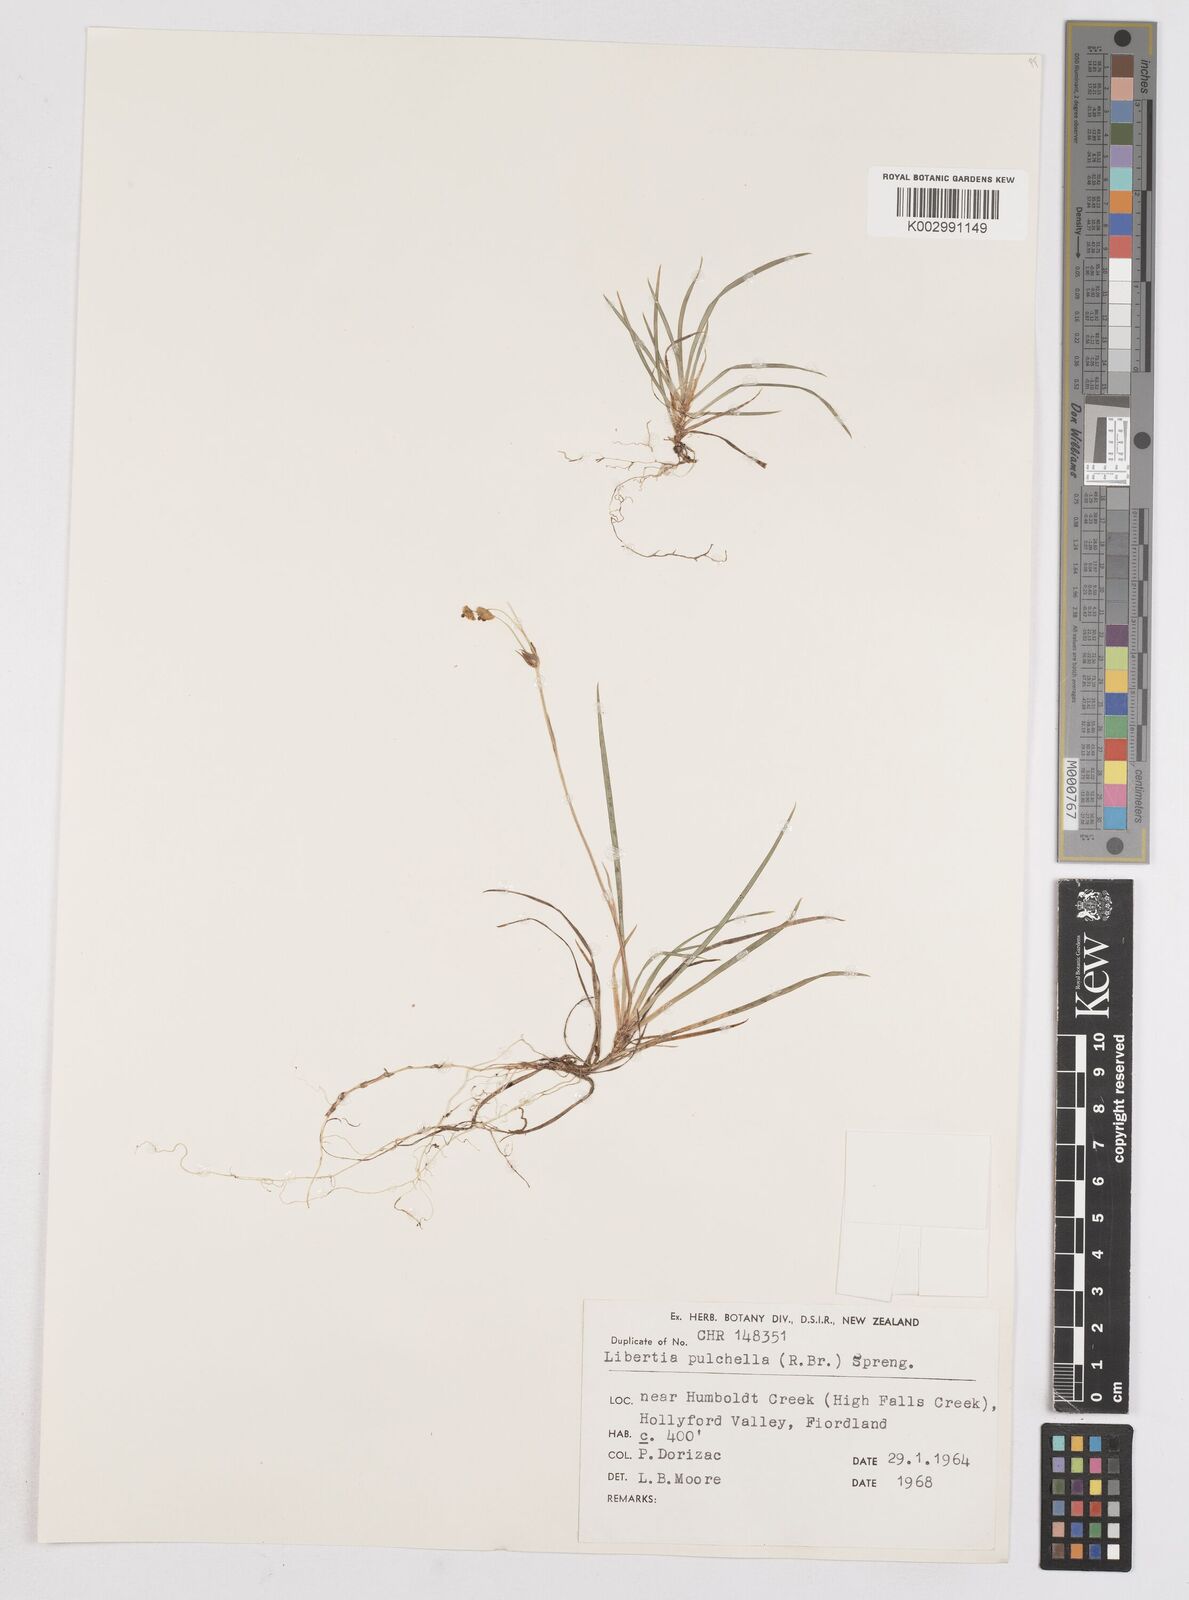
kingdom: Plantae
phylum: Tracheophyta
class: Liliopsida
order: Asparagales
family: Iridaceae
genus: Libertia
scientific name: Libertia pulchella
